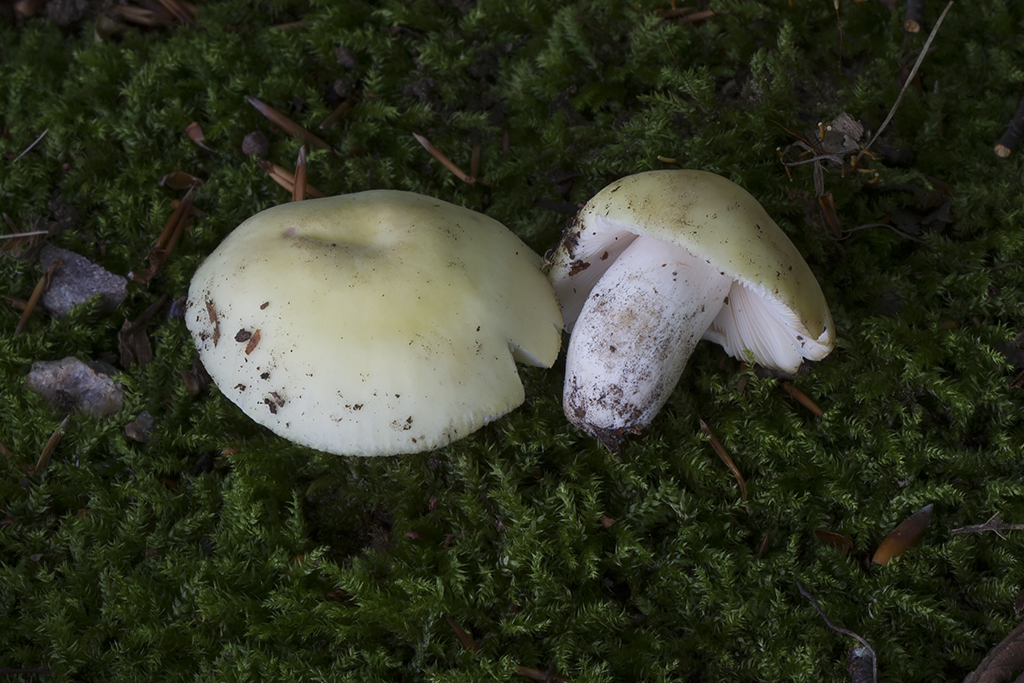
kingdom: Fungi
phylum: Basidiomycota
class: Agaricomycetes
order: Russulales
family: Russulaceae
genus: Russula
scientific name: Russula violeipes
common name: ferskengul skørhat
